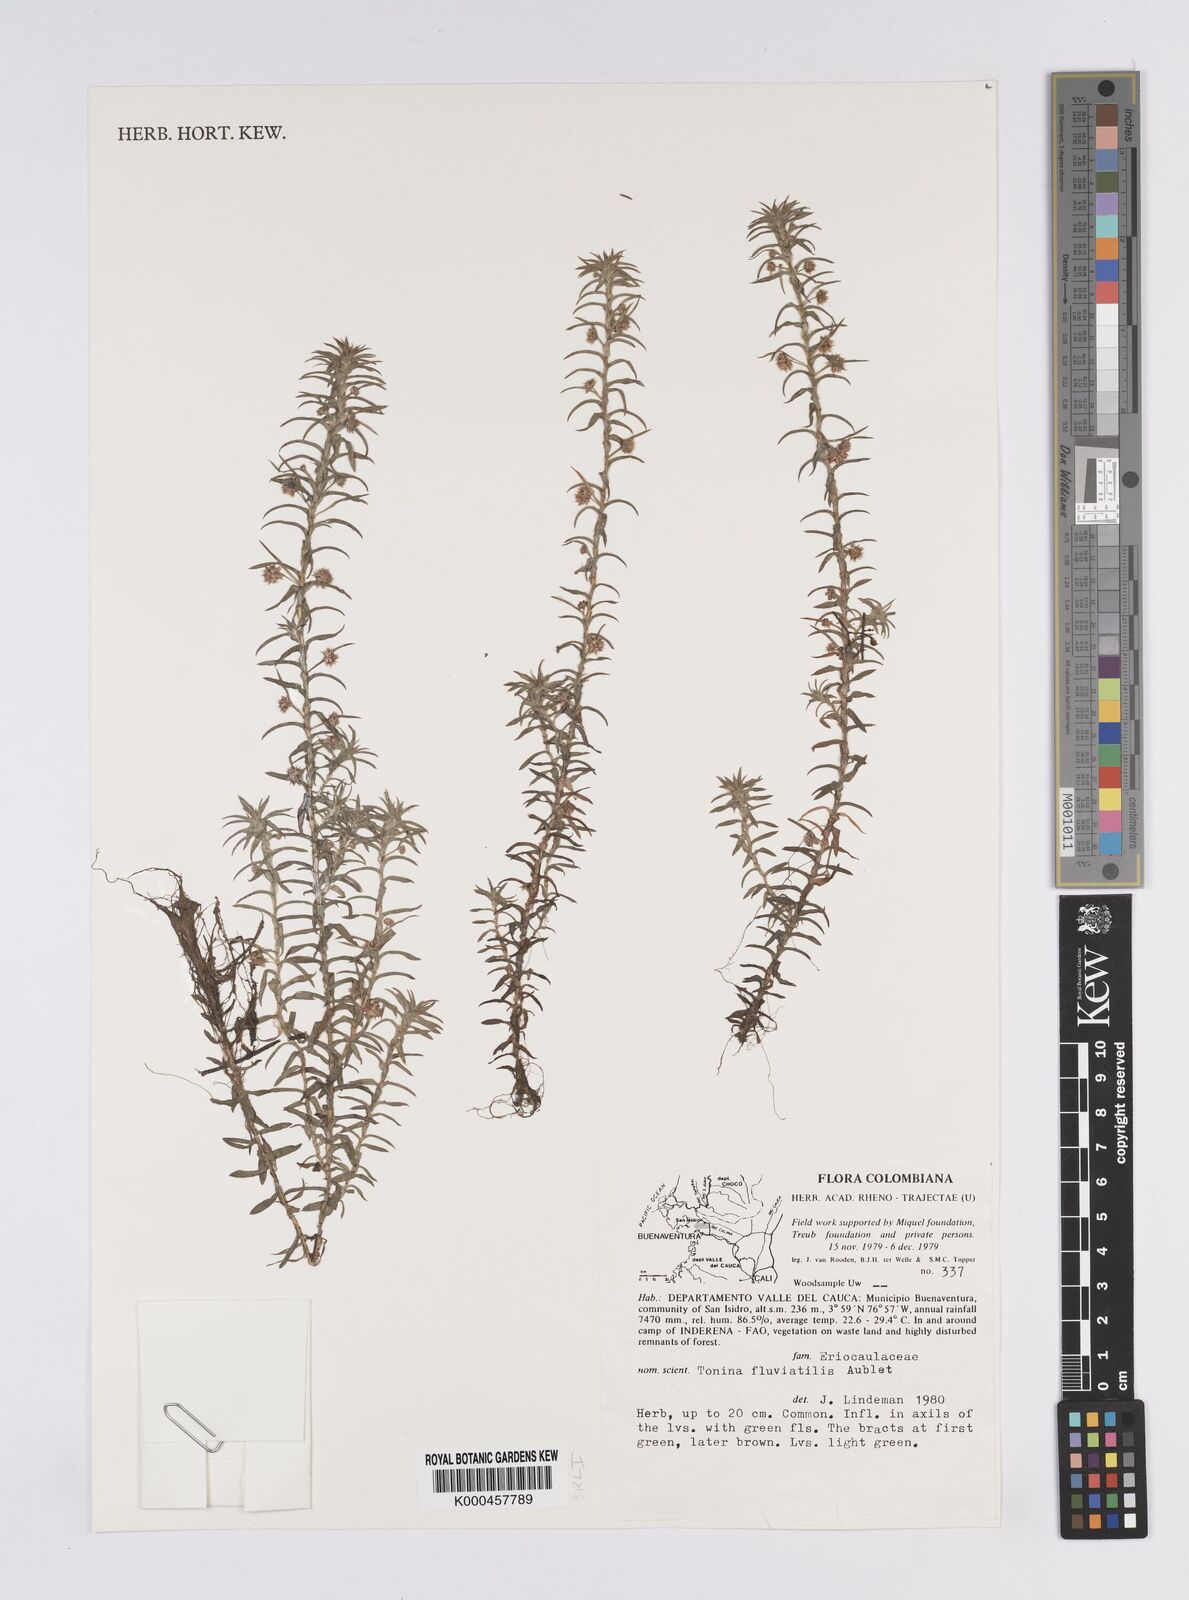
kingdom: Plantae
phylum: Tracheophyta
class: Liliopsida
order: Poales
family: Eriocaulaceae
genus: Paepalanthus
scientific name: Paepalanthus fluviatilis
